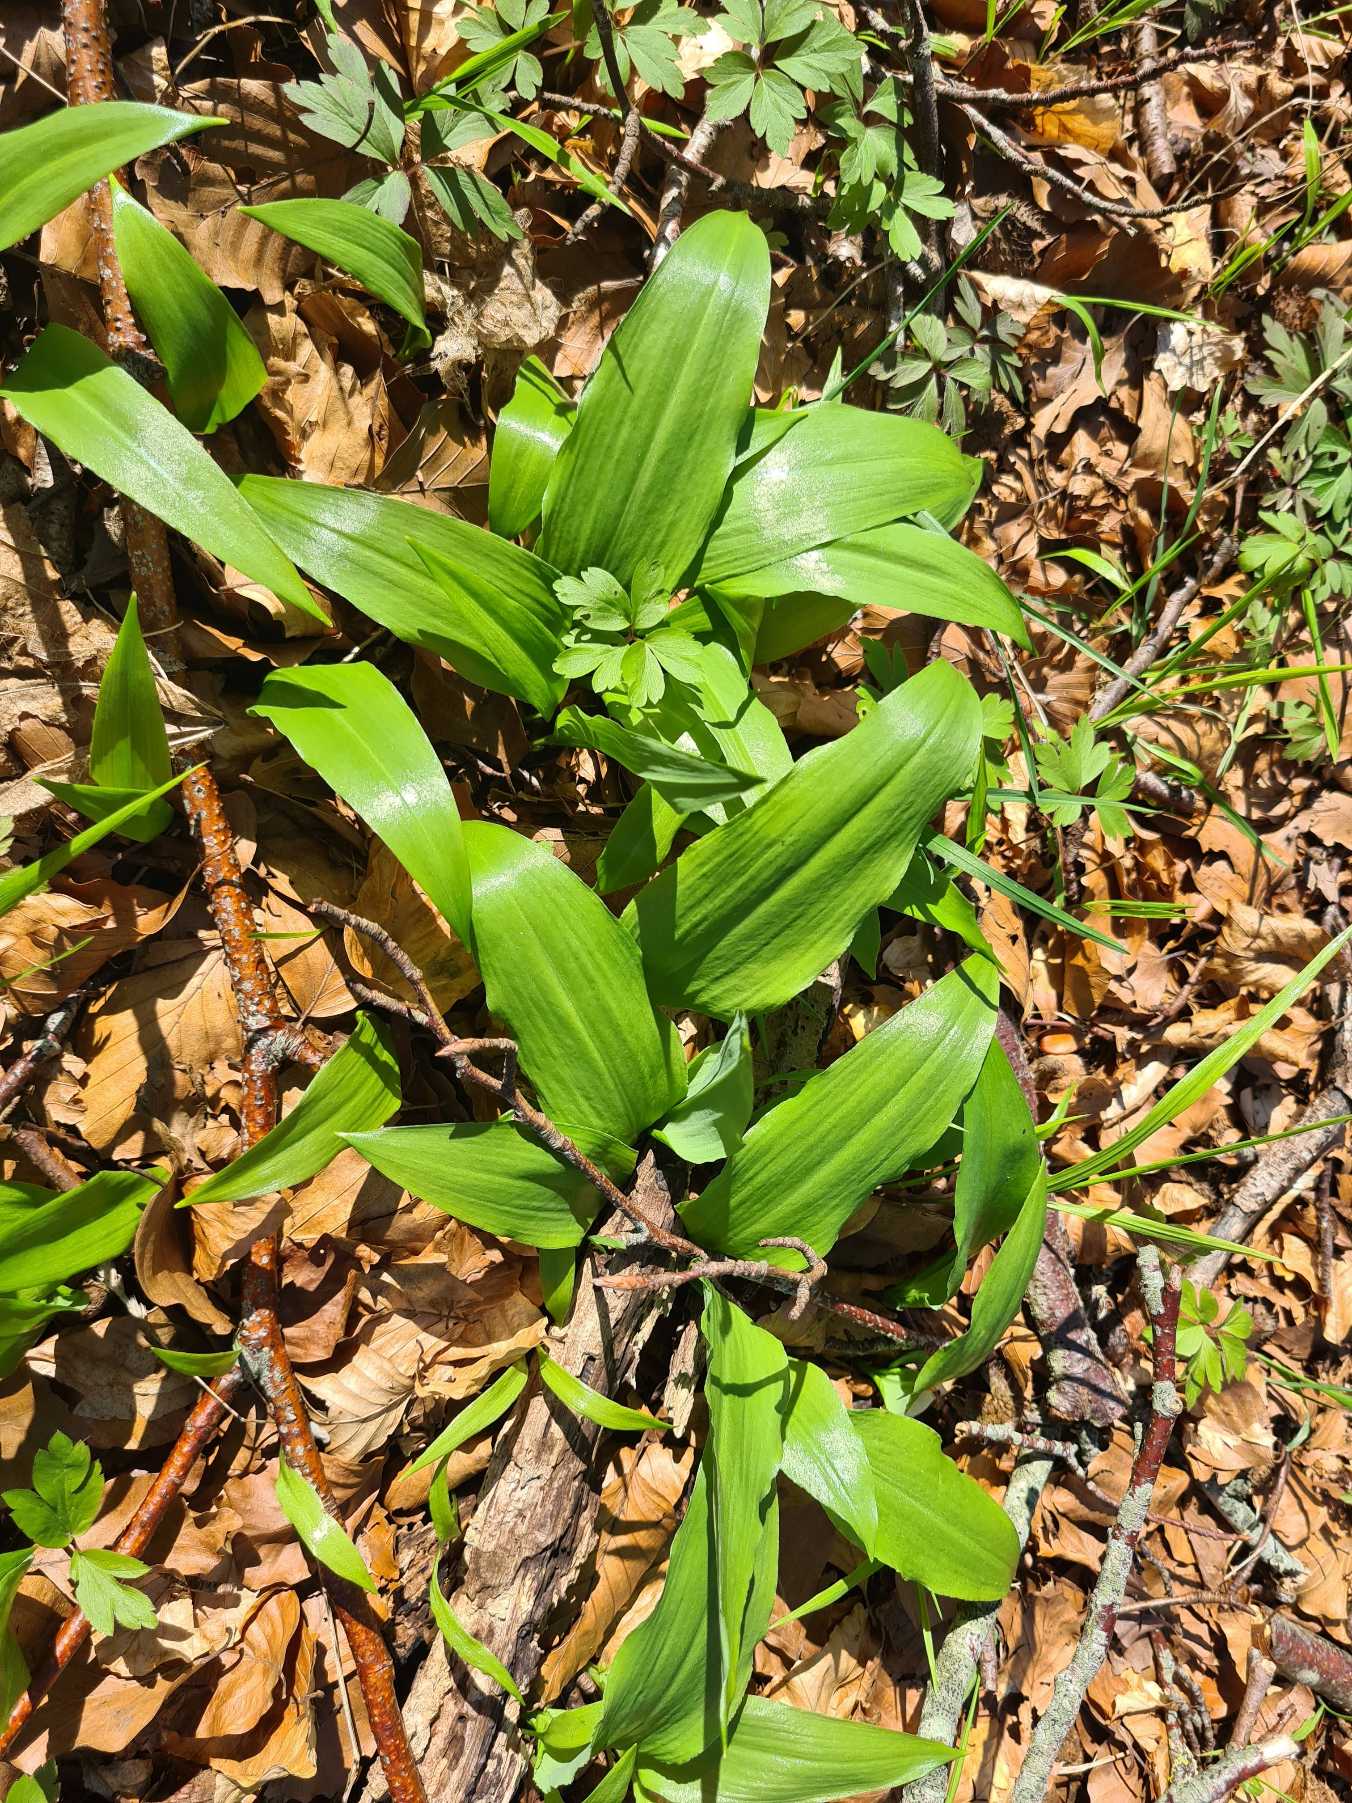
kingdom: Plantae
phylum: Tracheophyta
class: Liliopsida
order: Asparagales
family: Amaryllidaceae
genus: Allium
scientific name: Allium ursinum
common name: Rams-løg
